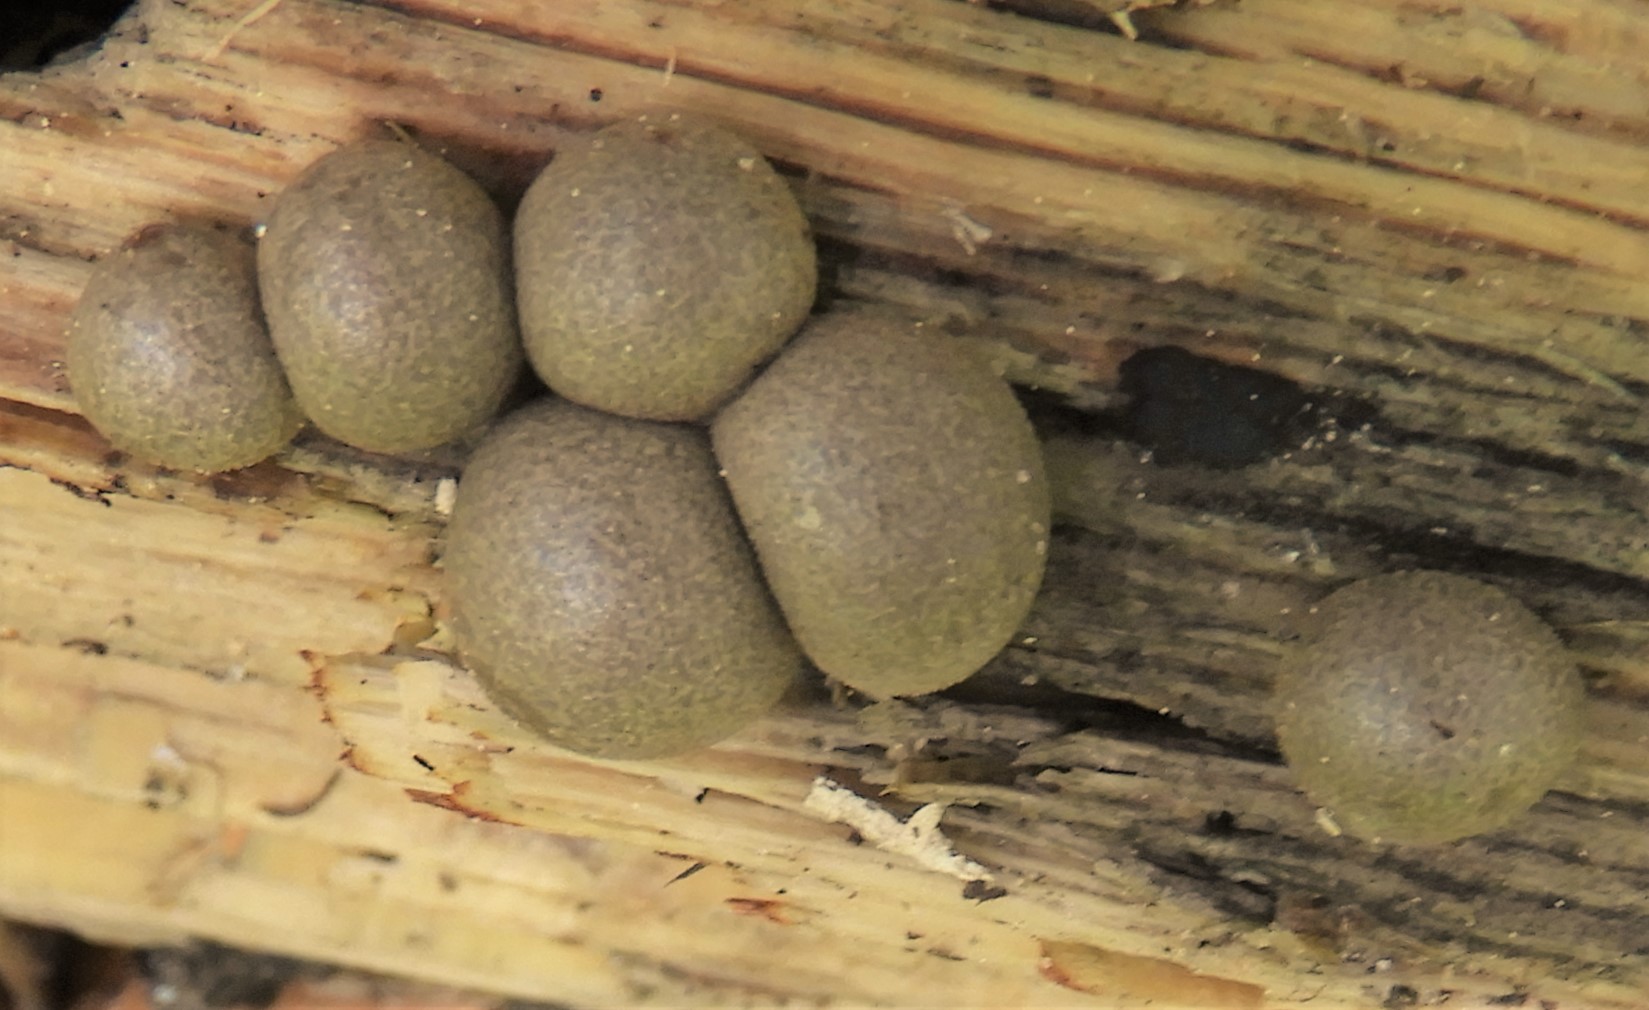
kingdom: Protozoa
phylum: Mycetozoa
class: Myxomycetes
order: Cribrariales
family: Tubiferaceae
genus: Lycogala
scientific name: Lycogala epidendrum
